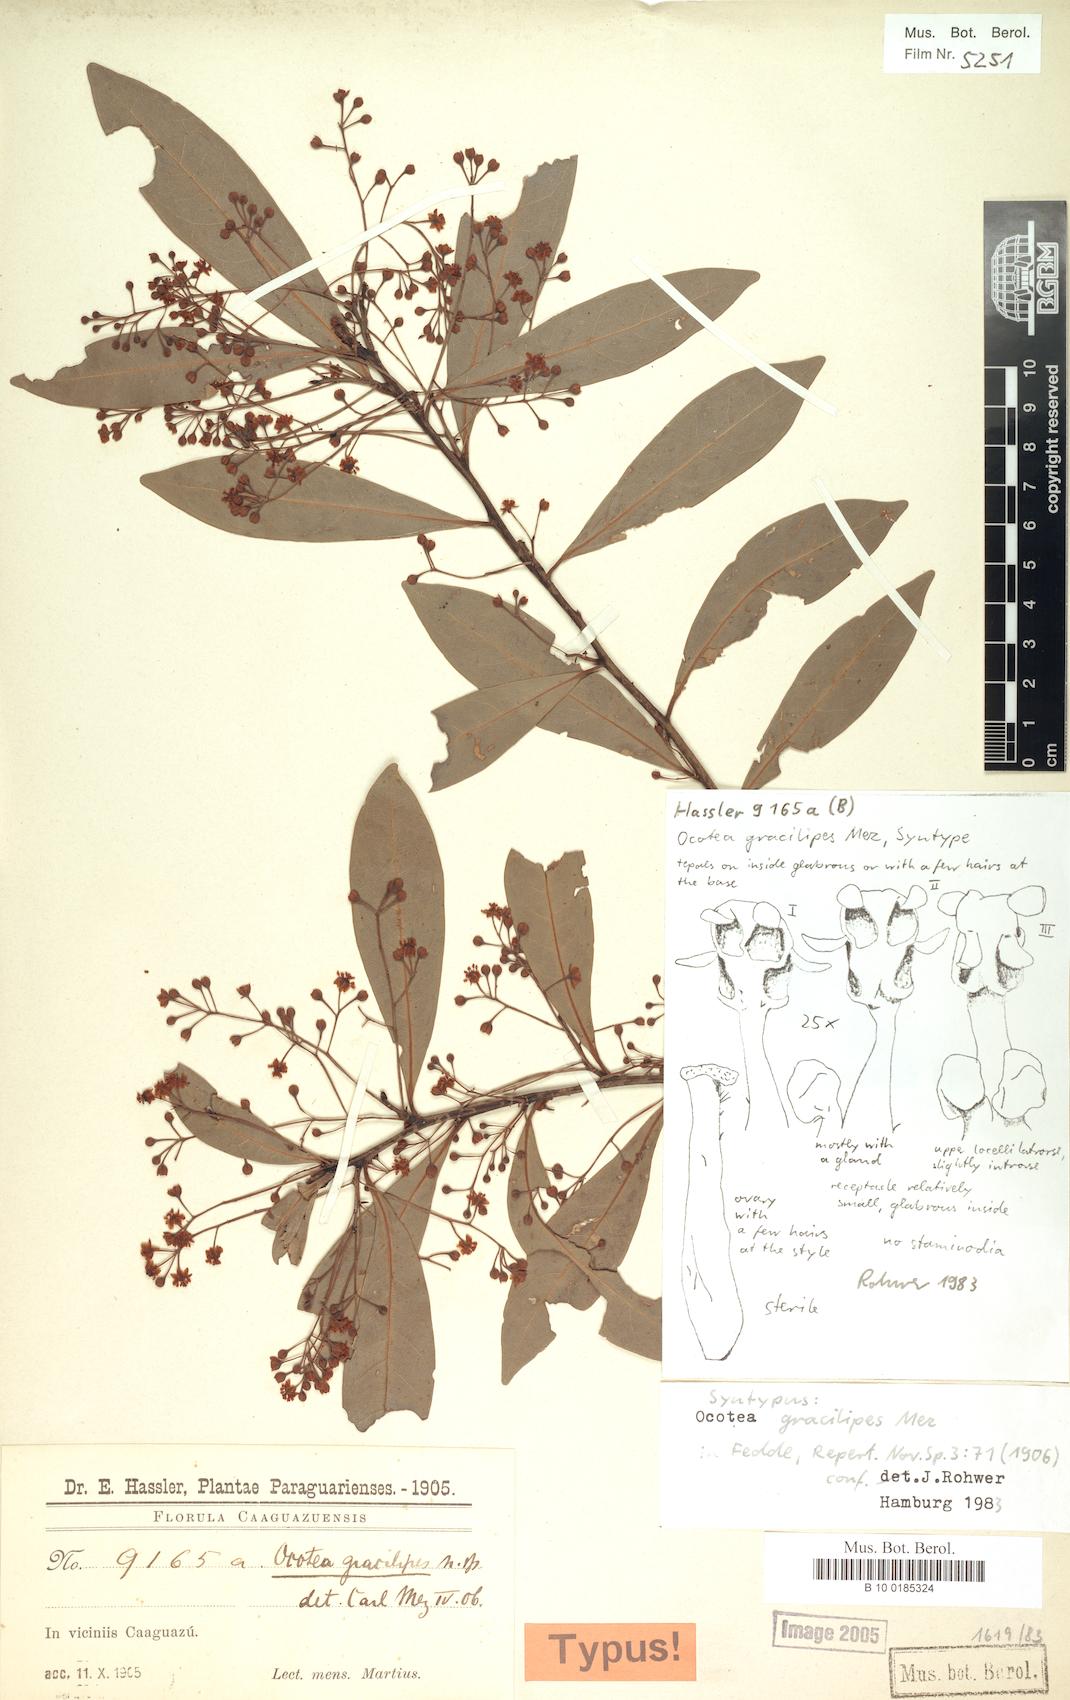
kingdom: Plantae
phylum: Tracheophyta
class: Magnoliopsida
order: Laurales
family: Lauraceae
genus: Ocotea
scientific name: Ocotea lancifolia
